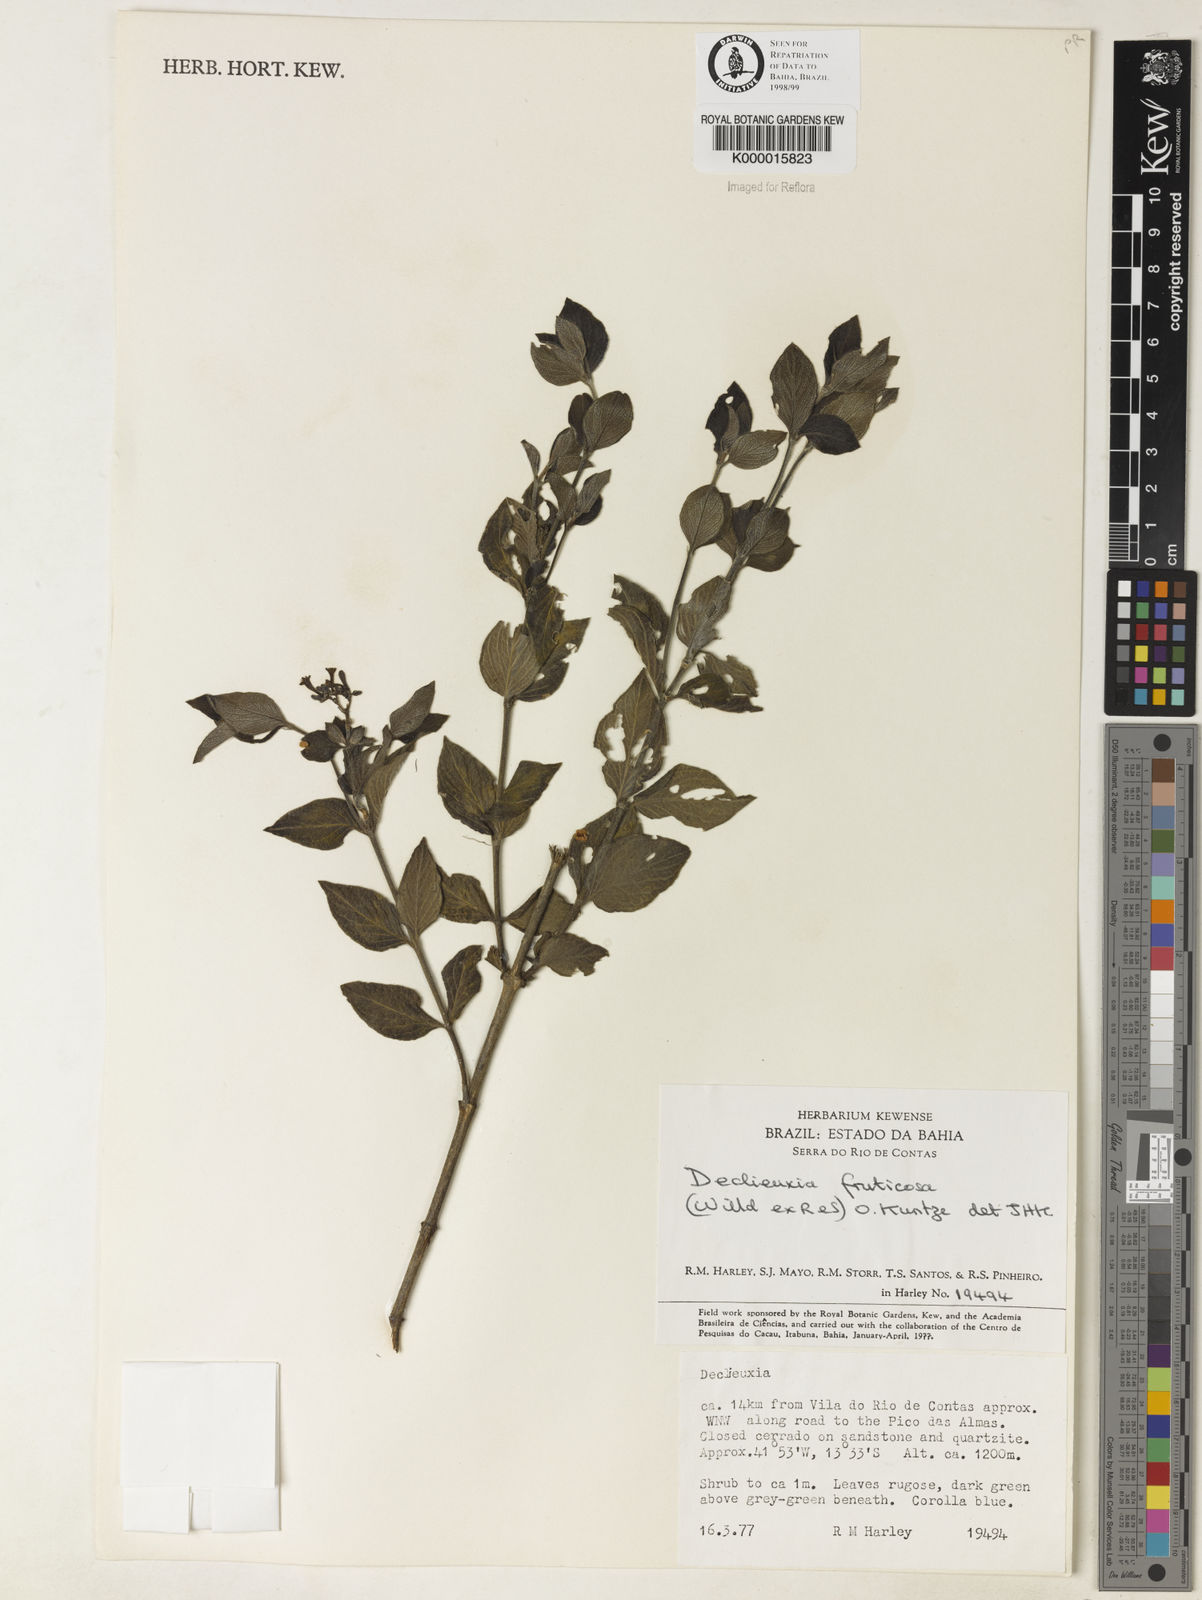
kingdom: Plantae
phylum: Tracheophyta
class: Magnoliopsida
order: Gentianales
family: Rubiaceae
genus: Declieuxia
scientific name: Declieuxia fruticosa
